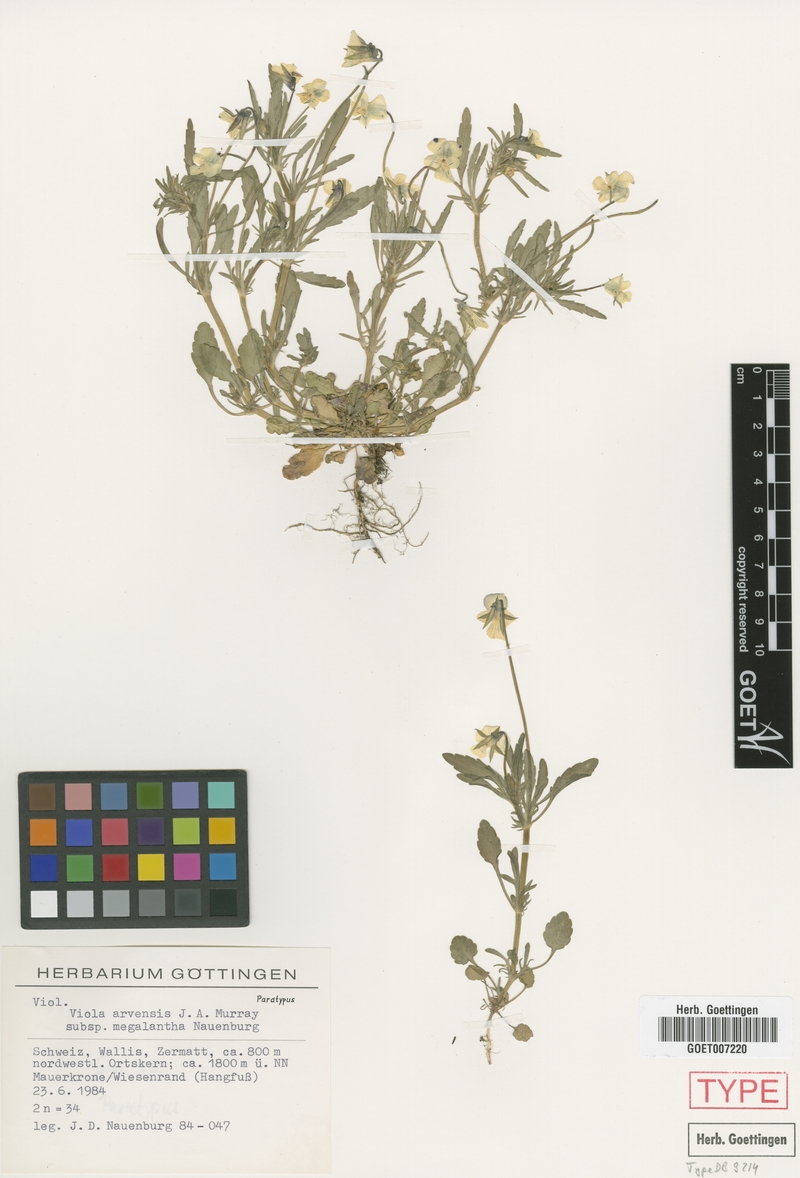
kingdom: Plantae
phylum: Tracheophyta
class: Magnoliopsida
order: Malpighiales
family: Violaceae
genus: Viola
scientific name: Viola arvensis
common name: Field pansy
